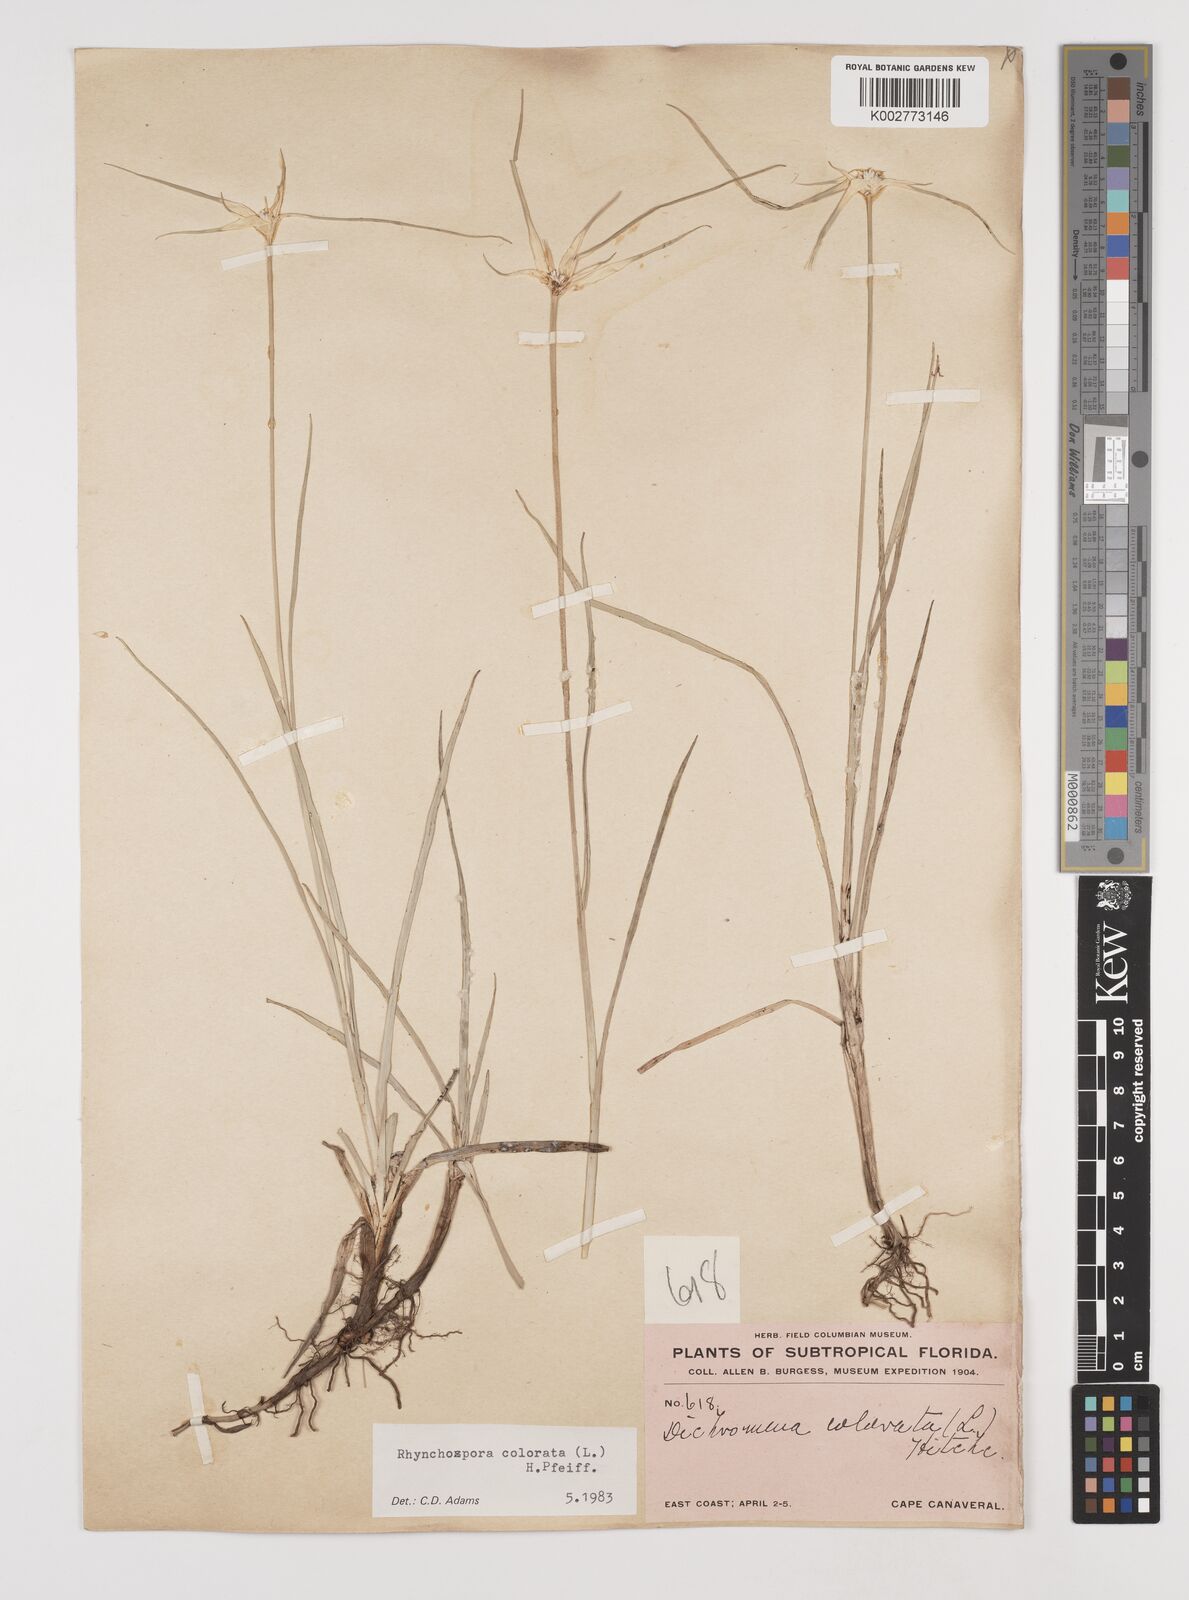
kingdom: Plantae
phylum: Tracheophyta
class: Liliopsida
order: Poales
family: Cyperaceae
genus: Rhynchospora
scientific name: Rhynchospora colorata
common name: Star sedge
